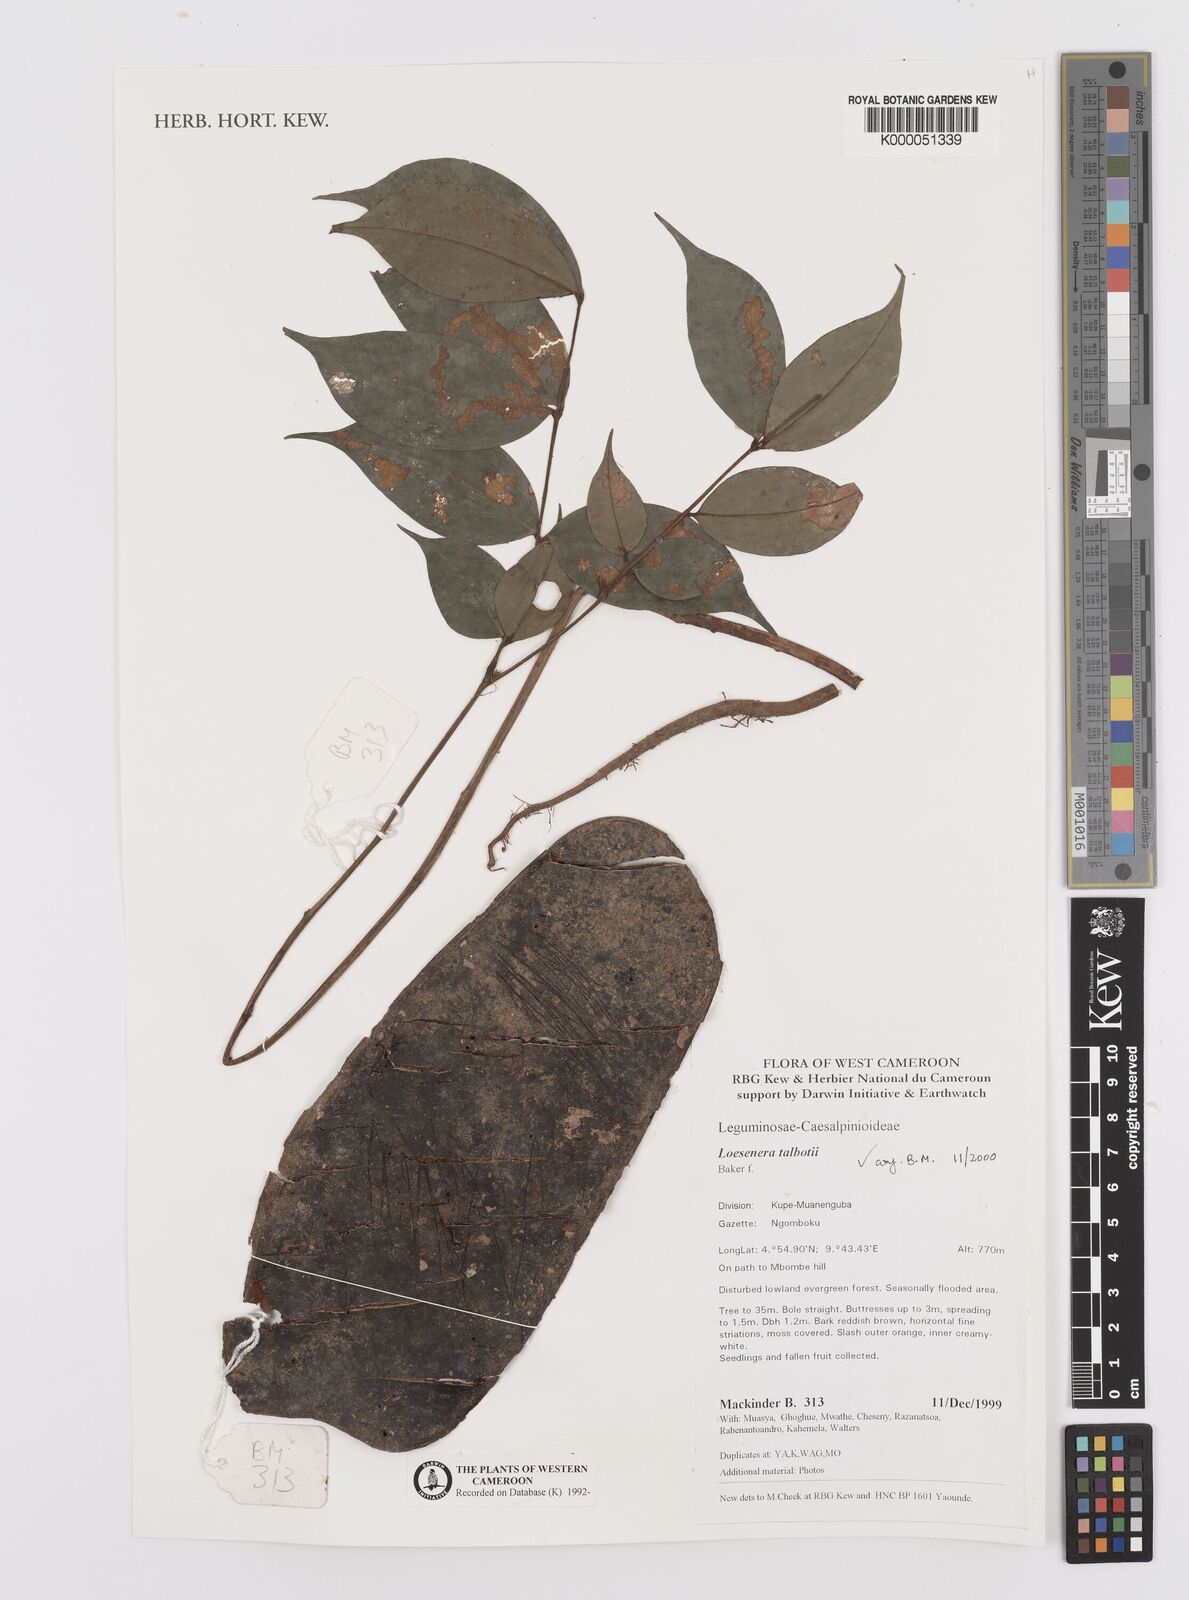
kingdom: Plantae
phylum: Tracheophyta
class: Magnoliopsida
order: Fabales
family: Fabaceae
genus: Loesenera
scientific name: Loesenera talbotii
